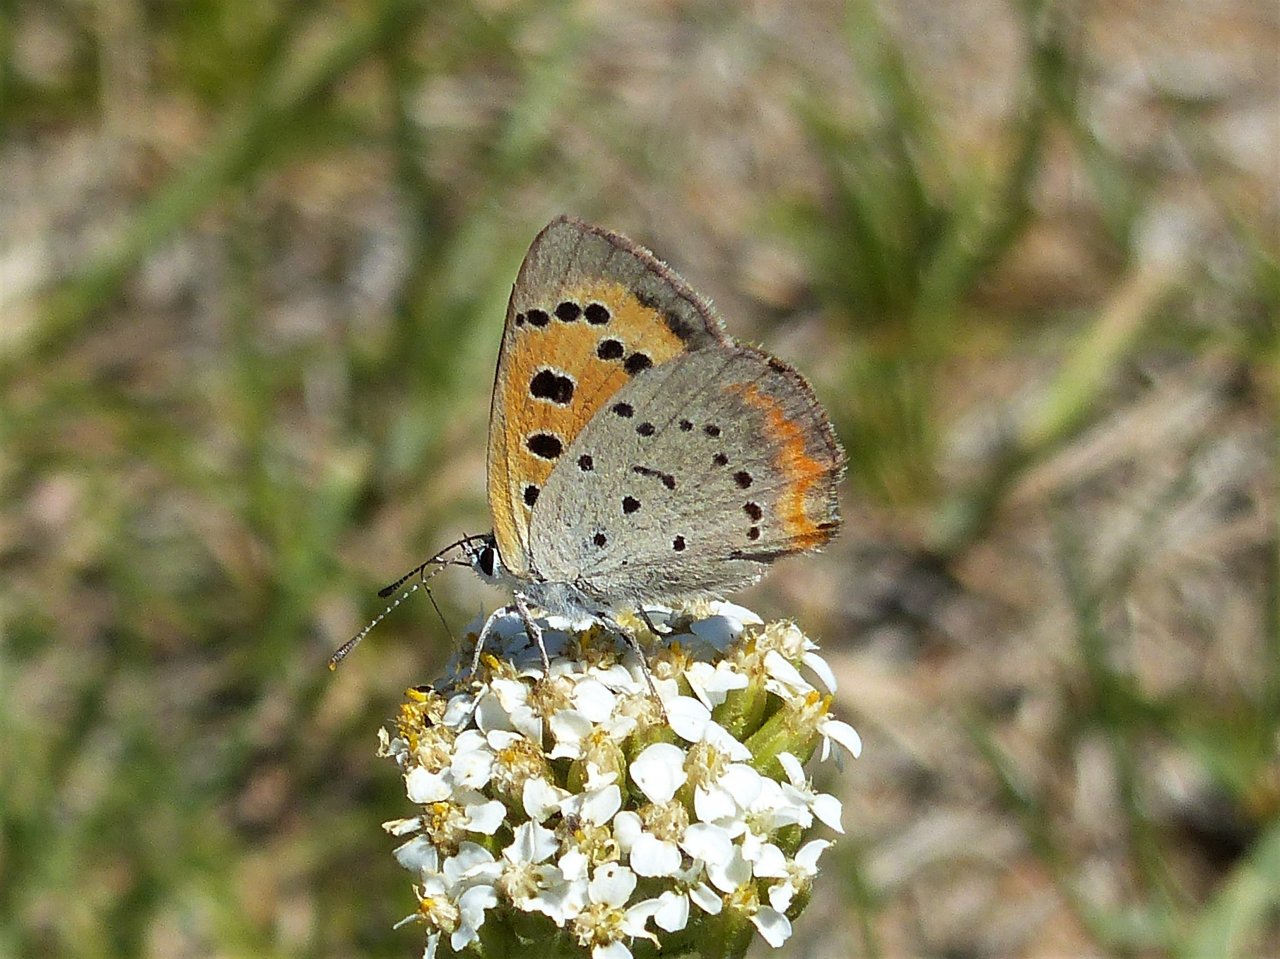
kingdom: Animalia
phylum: Arthropoda
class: Insecta
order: Lepidoptera
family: Lycaenidae
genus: Lycaena
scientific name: Lycaena phlaeas
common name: American Copper
